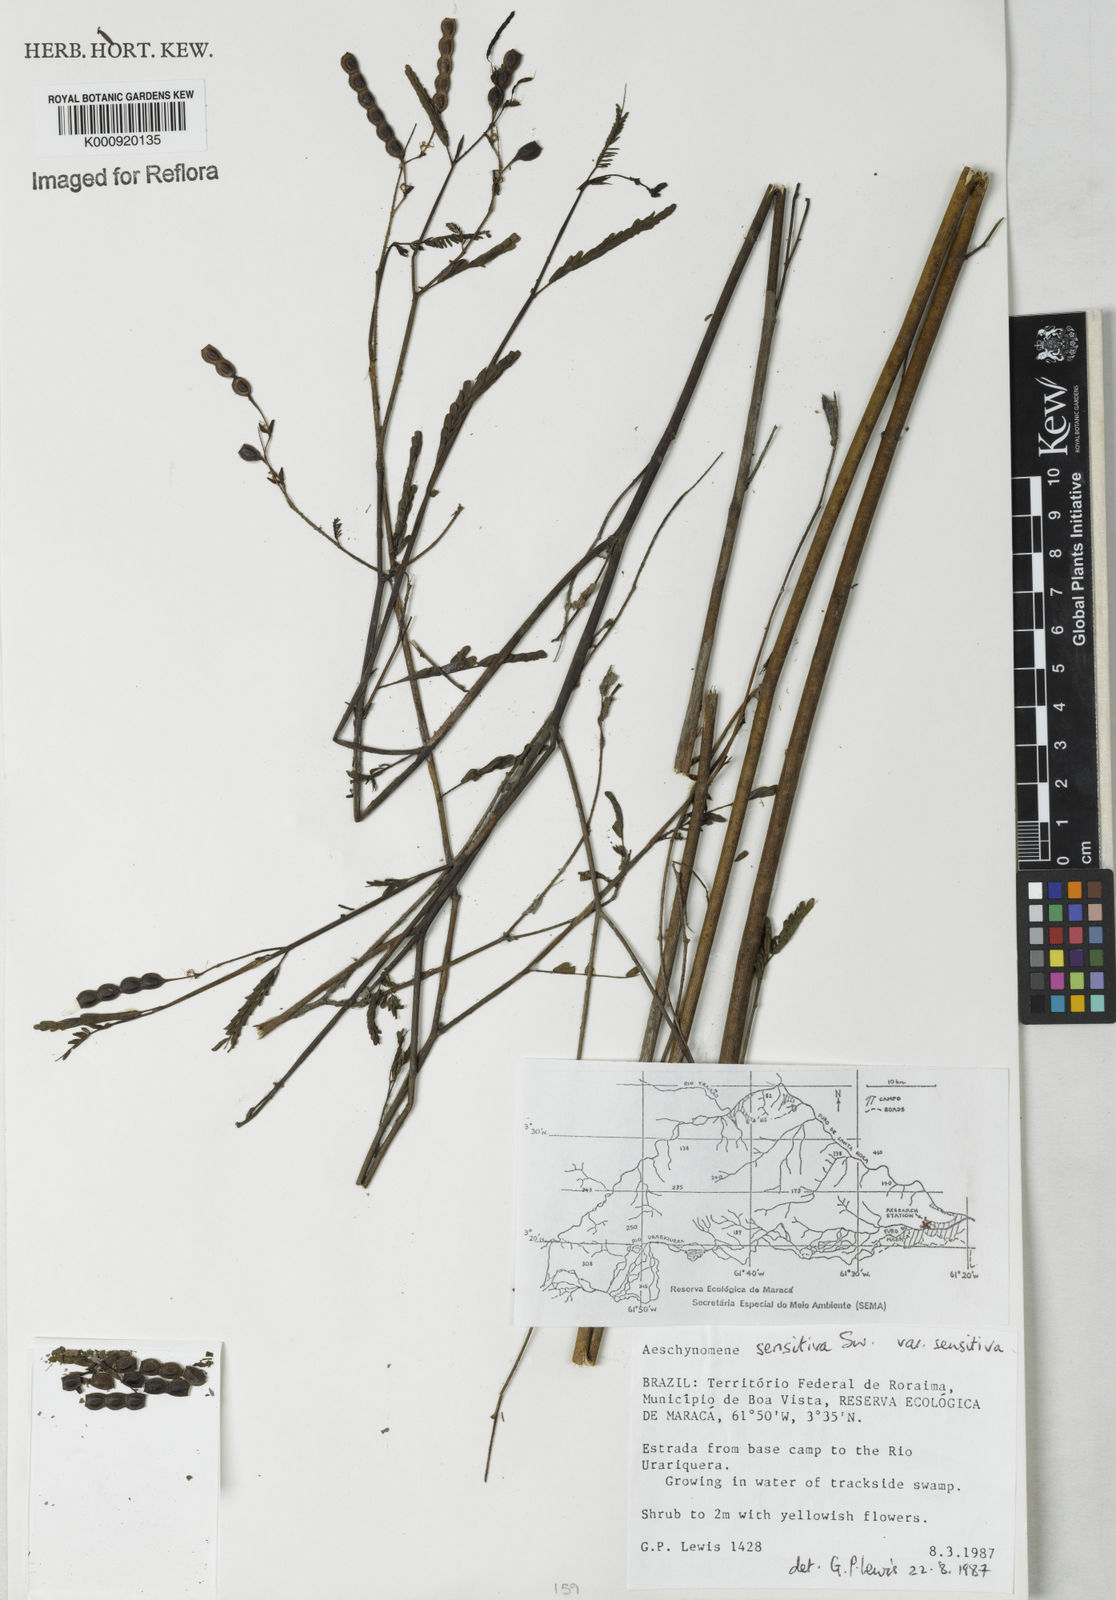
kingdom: Plantae
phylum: Tracheophyta
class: Magnoliopsida
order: Fabales
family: Fabaceae
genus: Aeschynomene
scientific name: Aeschynomene sensitiva
